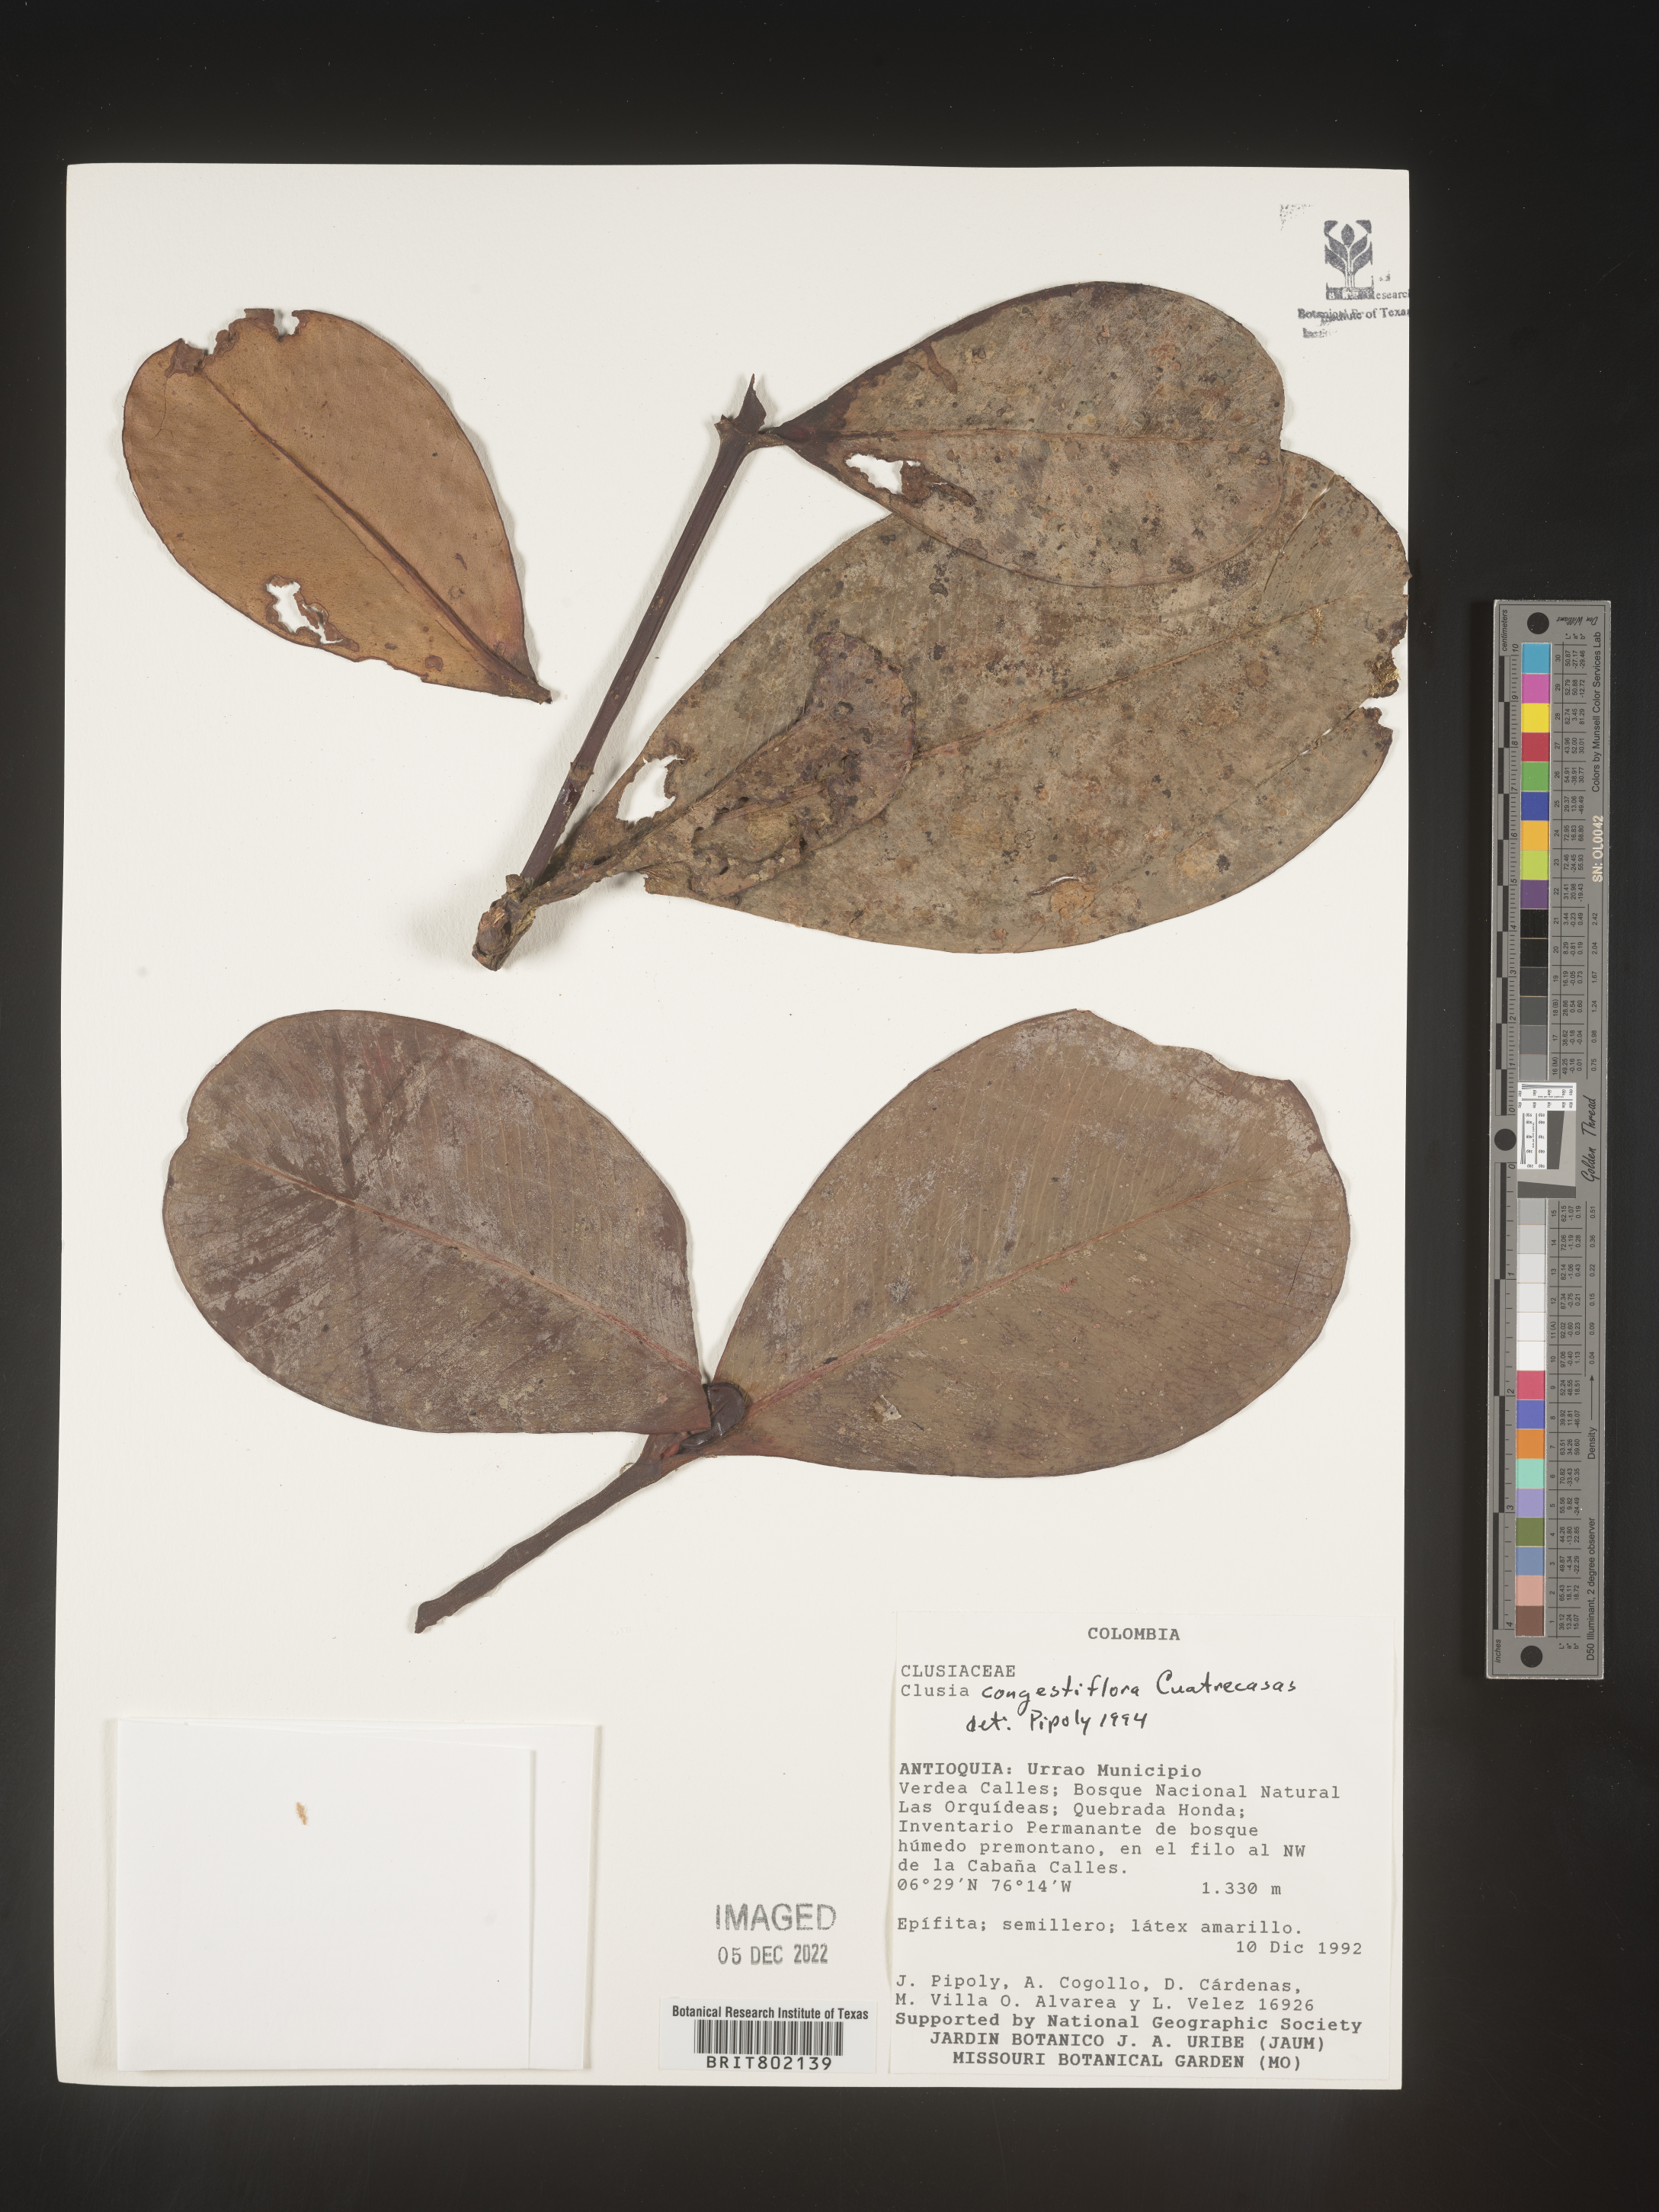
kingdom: Plantae
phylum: Tracheophyta
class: Magnoliopsida
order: Malpighiales
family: Clusiaceae
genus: Clusia
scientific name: Clusia
